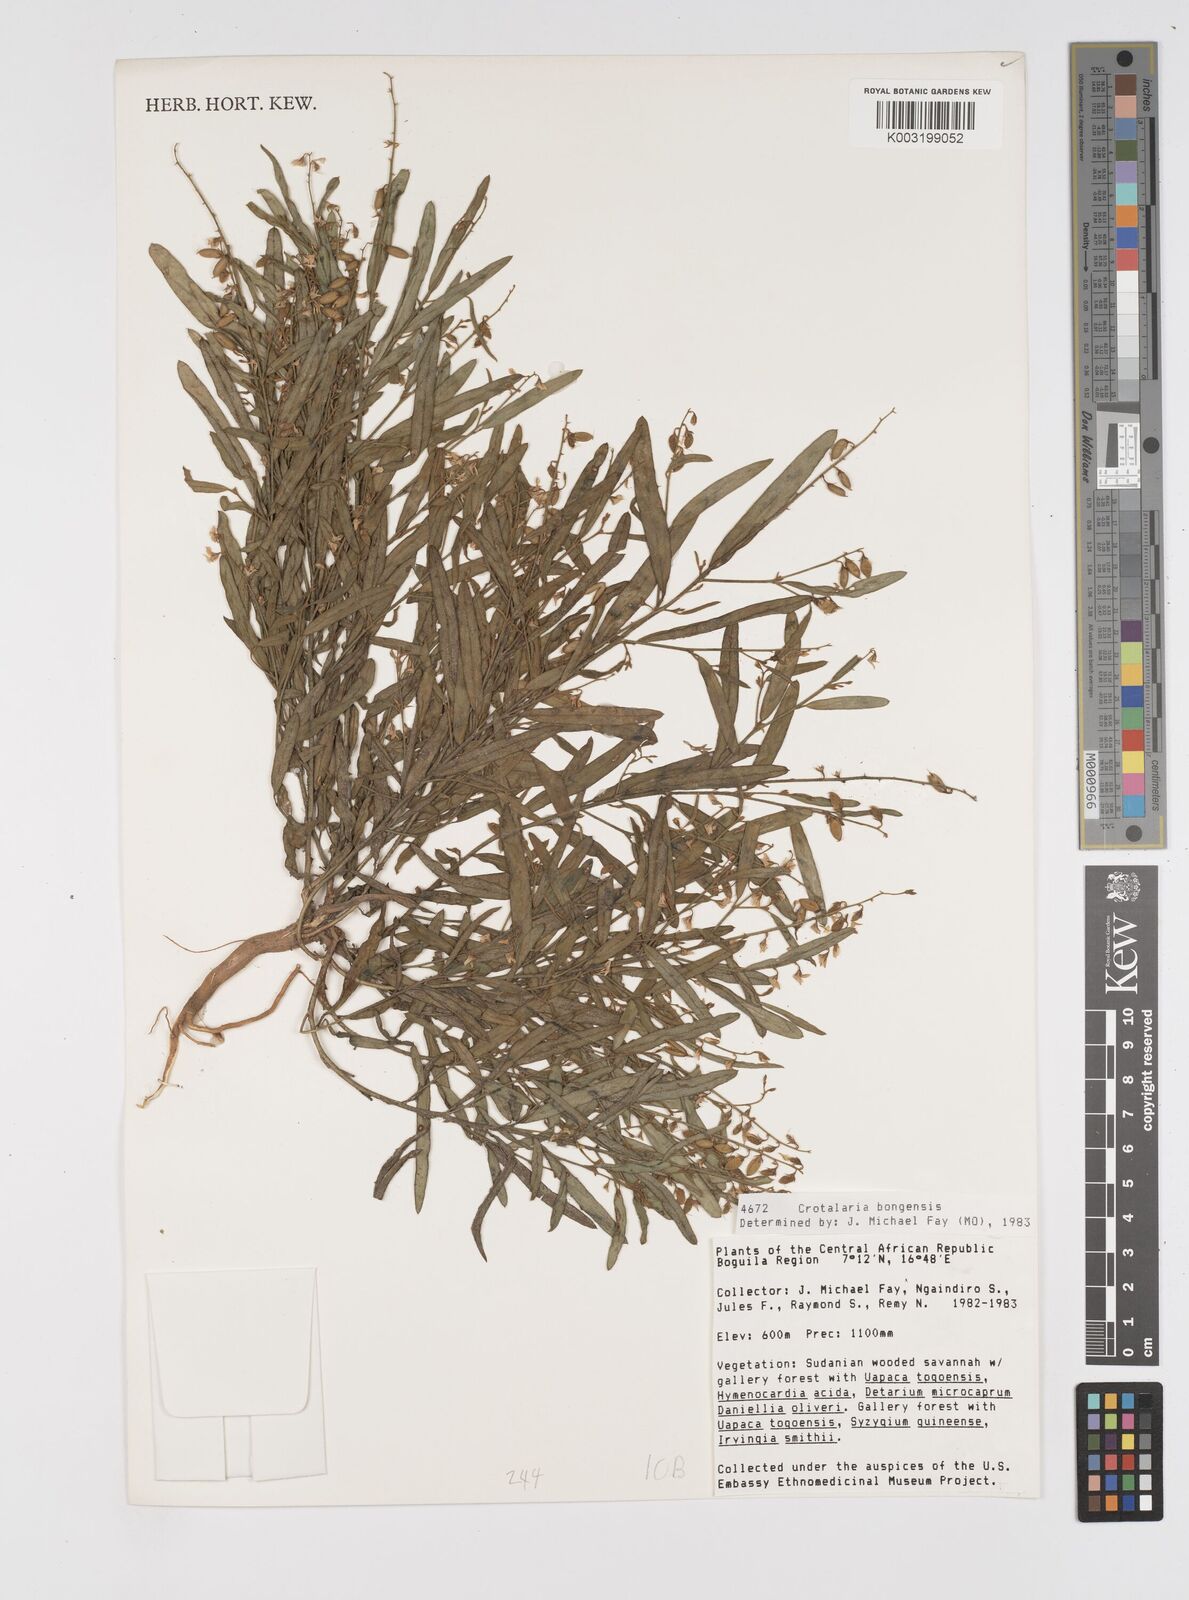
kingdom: Plantae
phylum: Tracheophyta
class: Magnoliopsida
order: Fabales
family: Fabaceae
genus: Crotalaria
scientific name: Crotalaria bongensis
